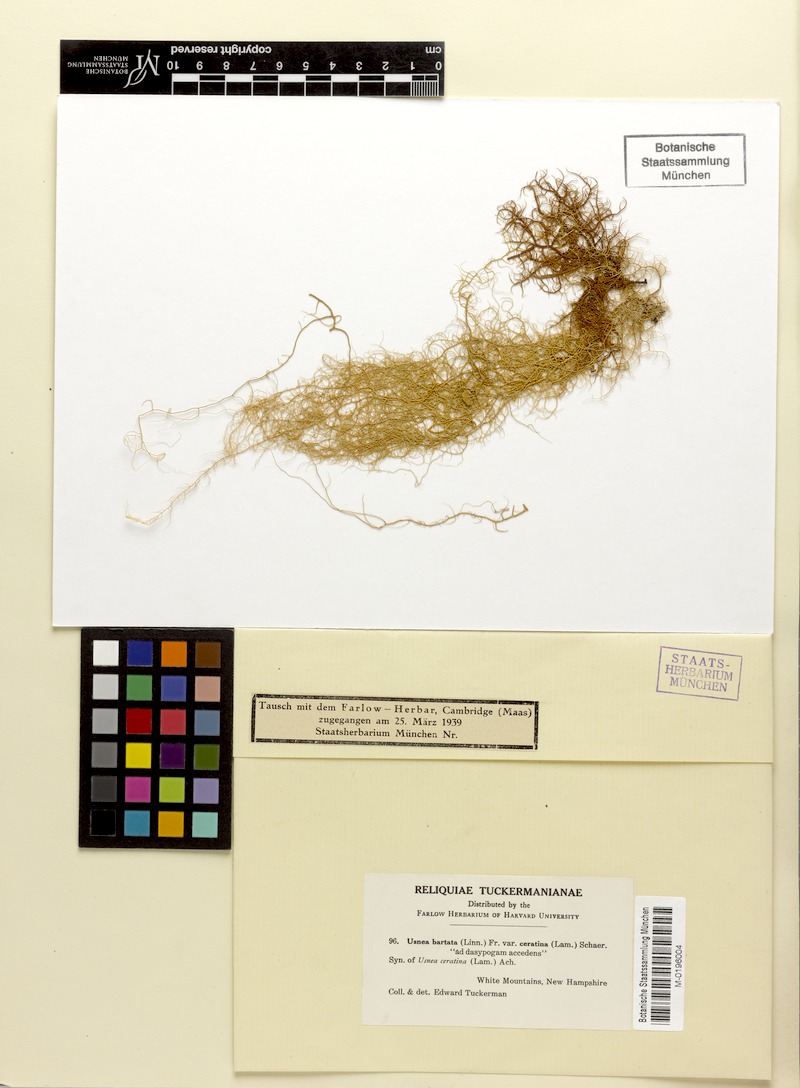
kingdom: Fungi
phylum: Ascomycota
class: Lecanoromycetes
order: Lecanorales
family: Parmeliaceae
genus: Usnea
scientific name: Usnea ceratina
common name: Warty beard lichen
